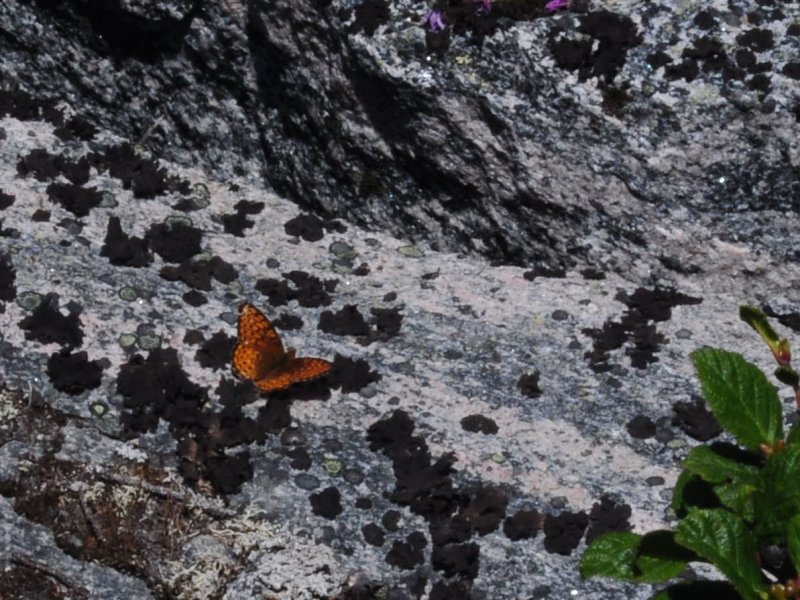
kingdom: Animalia
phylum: Arthropoda
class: Insecta
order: Lepidoptera
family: Nymphalidae
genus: Speyeria
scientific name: Speyeria atlantis
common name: Atlantis Fritillary
